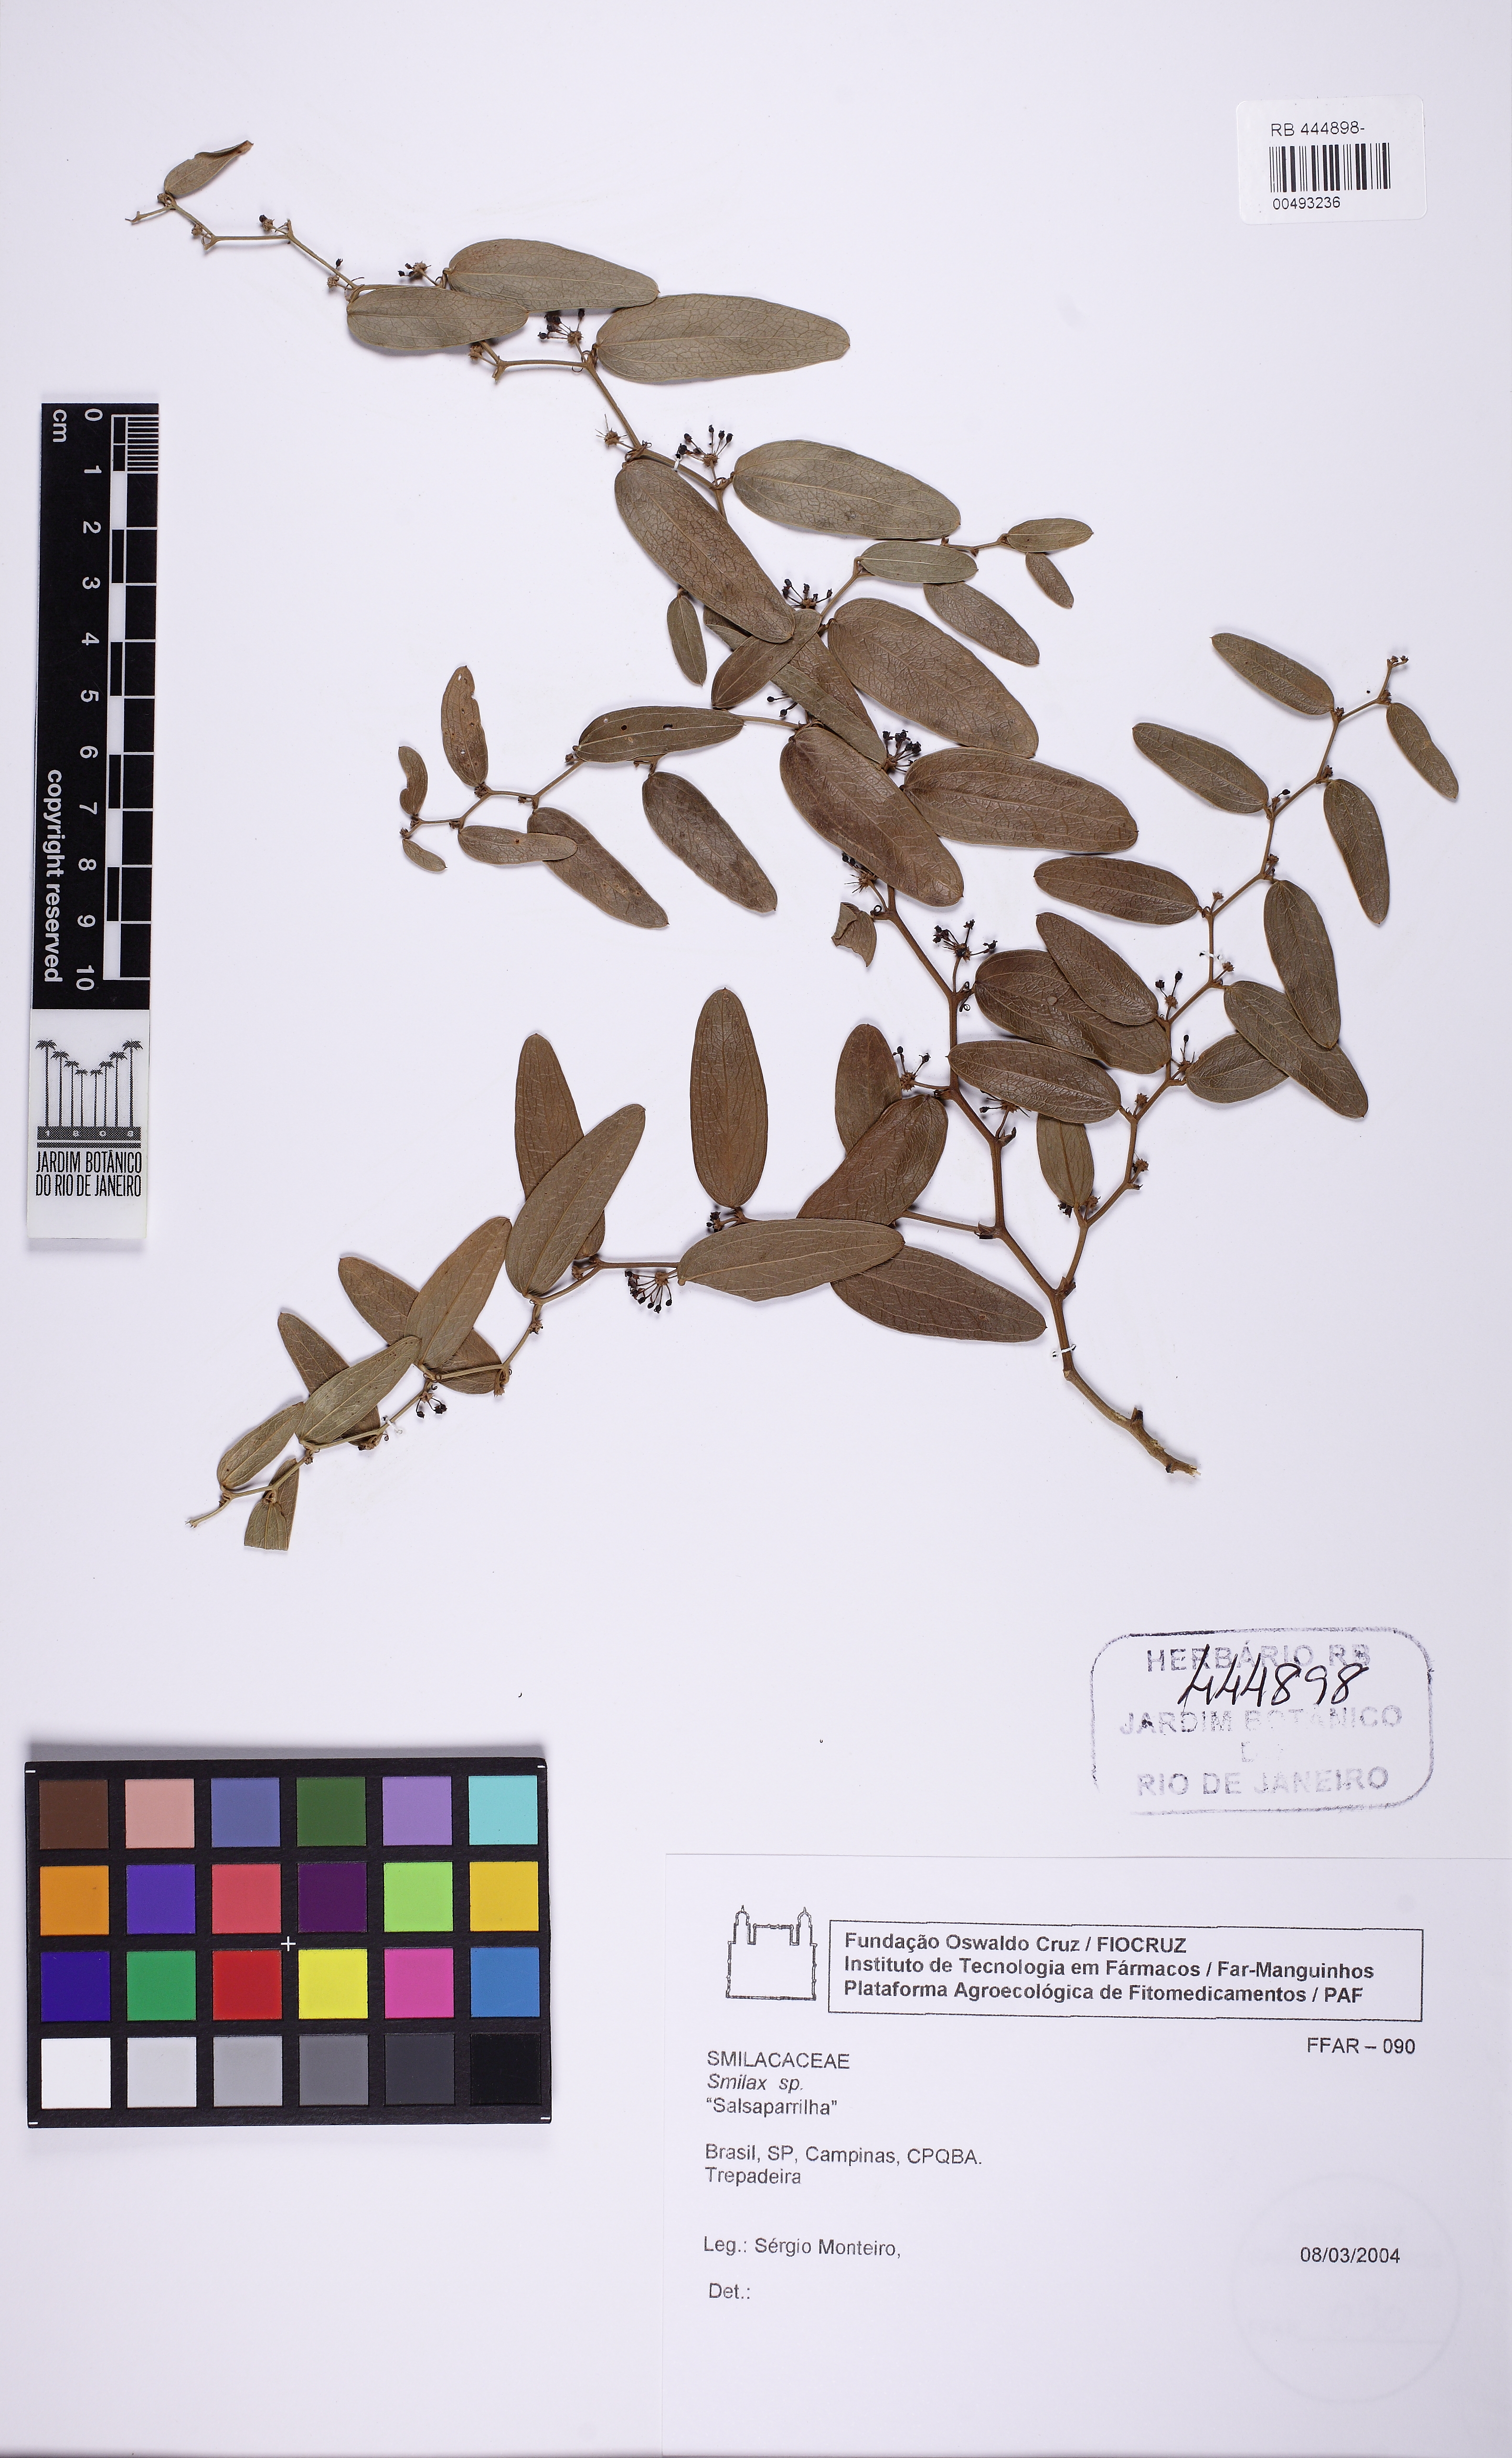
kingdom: Plantae
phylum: Tracheophyta
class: Liliopsida
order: Liliales
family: Smilacaceae
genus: Smilax
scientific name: Smilax
